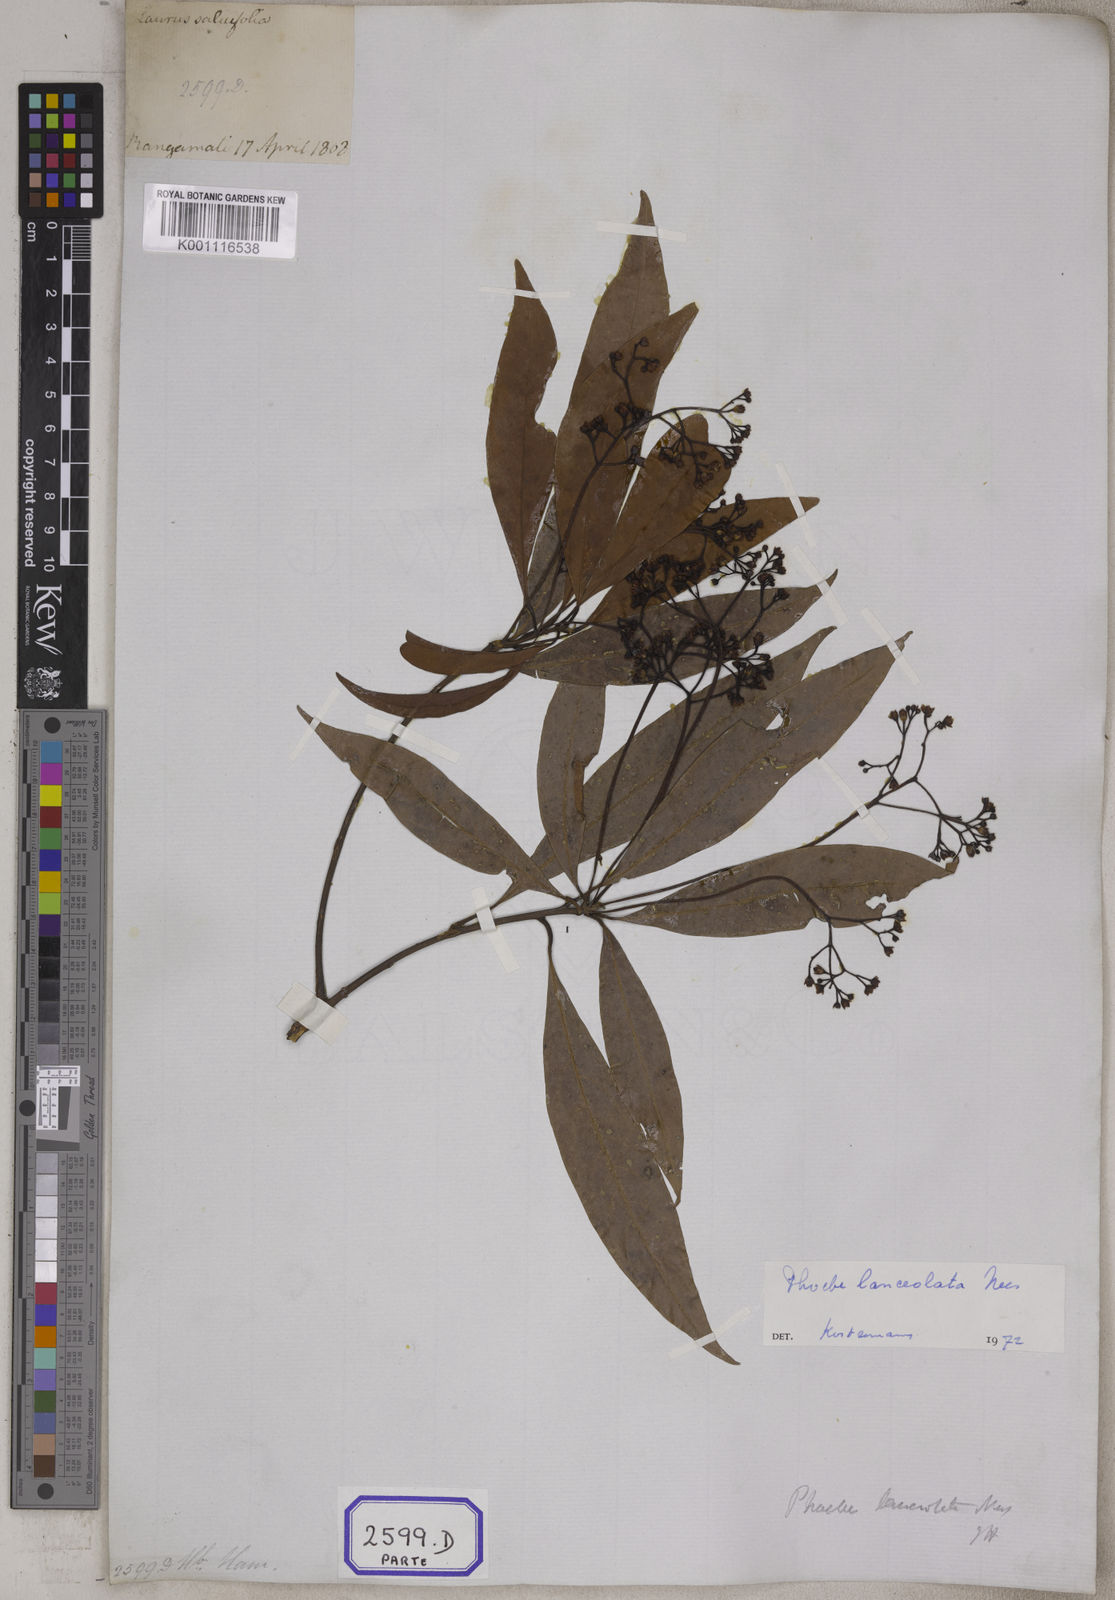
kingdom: Plantae
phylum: Tracheophyta
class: Magnoliopsida
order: Laurales
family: Lauraceae
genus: Laurus
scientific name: Laurus
